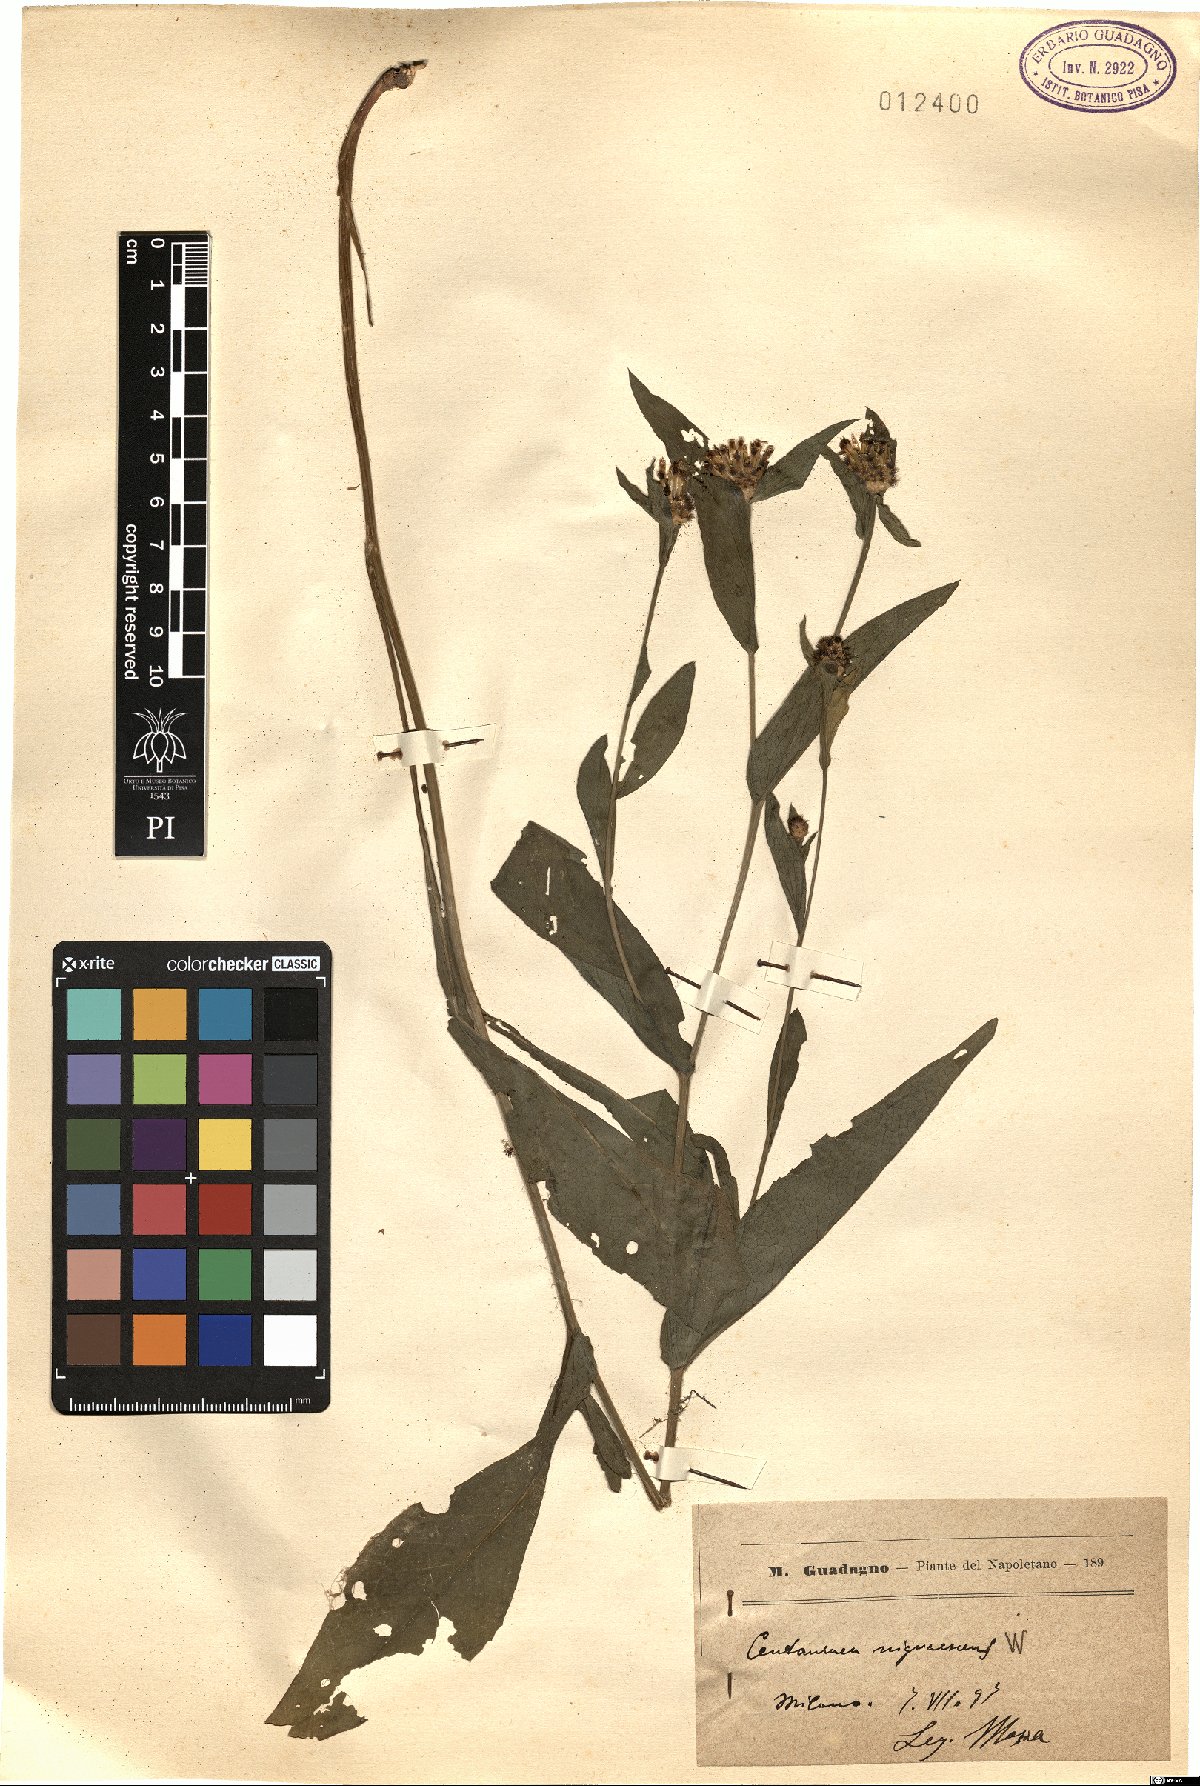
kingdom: Plantae
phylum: Tracheophyta
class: Magnoliopsida
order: Asterales
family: Asteraceae
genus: Centaurea
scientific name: Centaurea nigrescens
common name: Tyrol knapweed
